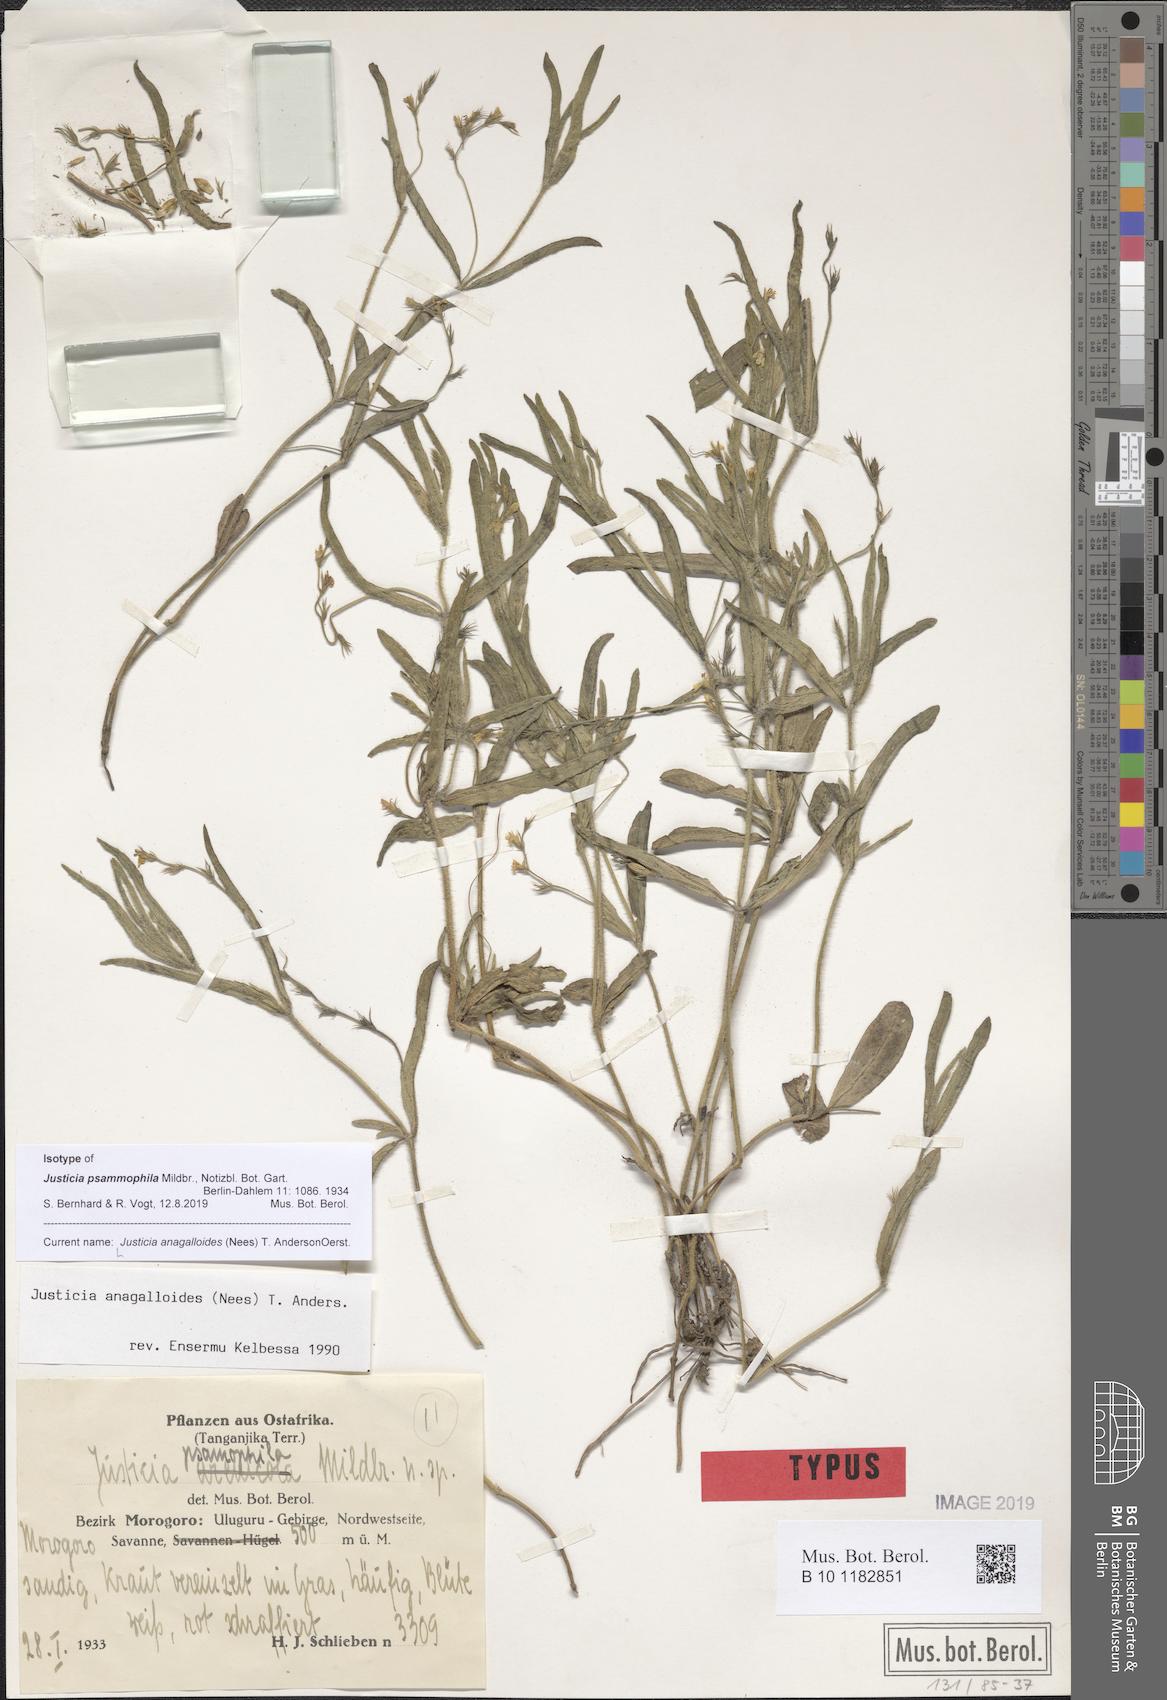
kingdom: Plantae
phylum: Tracheophyta
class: Magnoliopsida
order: Lamiales
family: Acanthaceae
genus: Justicia
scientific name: Justicia anagalloides
